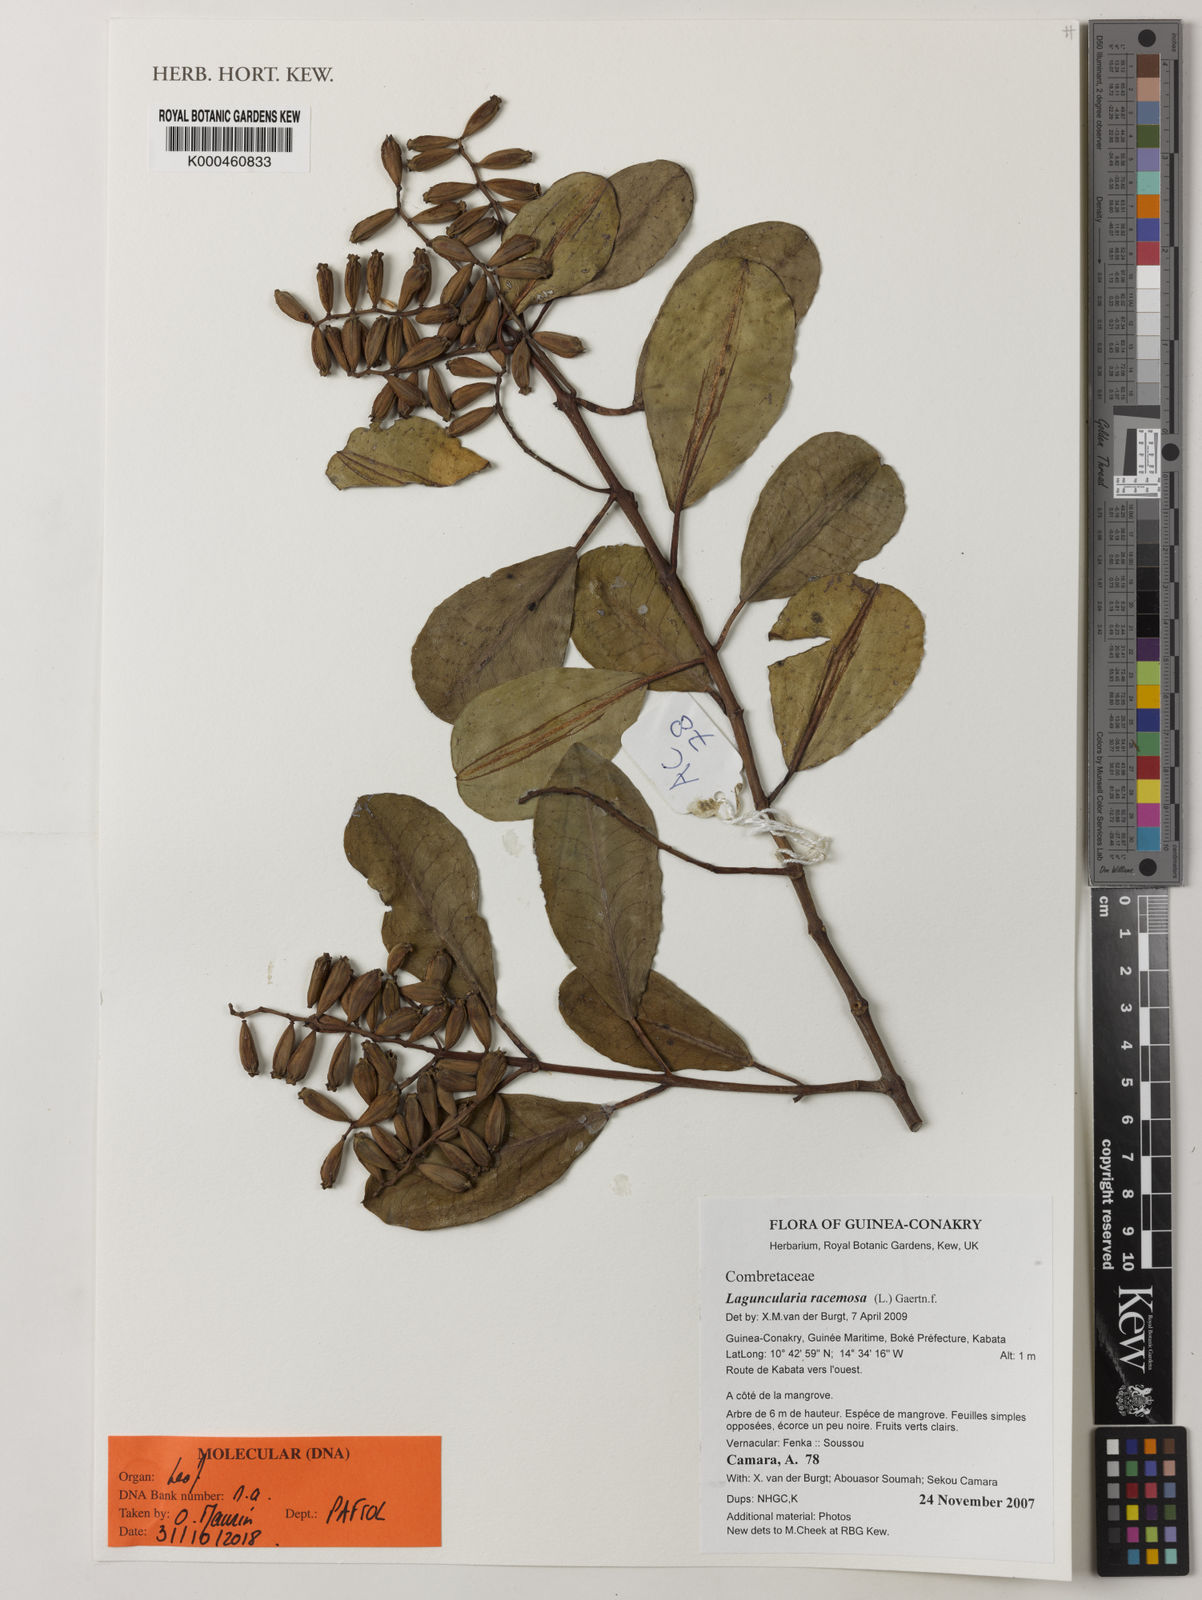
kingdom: Plantae
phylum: Tracheophyta
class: Magnoliopsida
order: Myrtales
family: Combretaceae
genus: Laguncularia
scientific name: Laguncularia racemosa
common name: White mangrove
